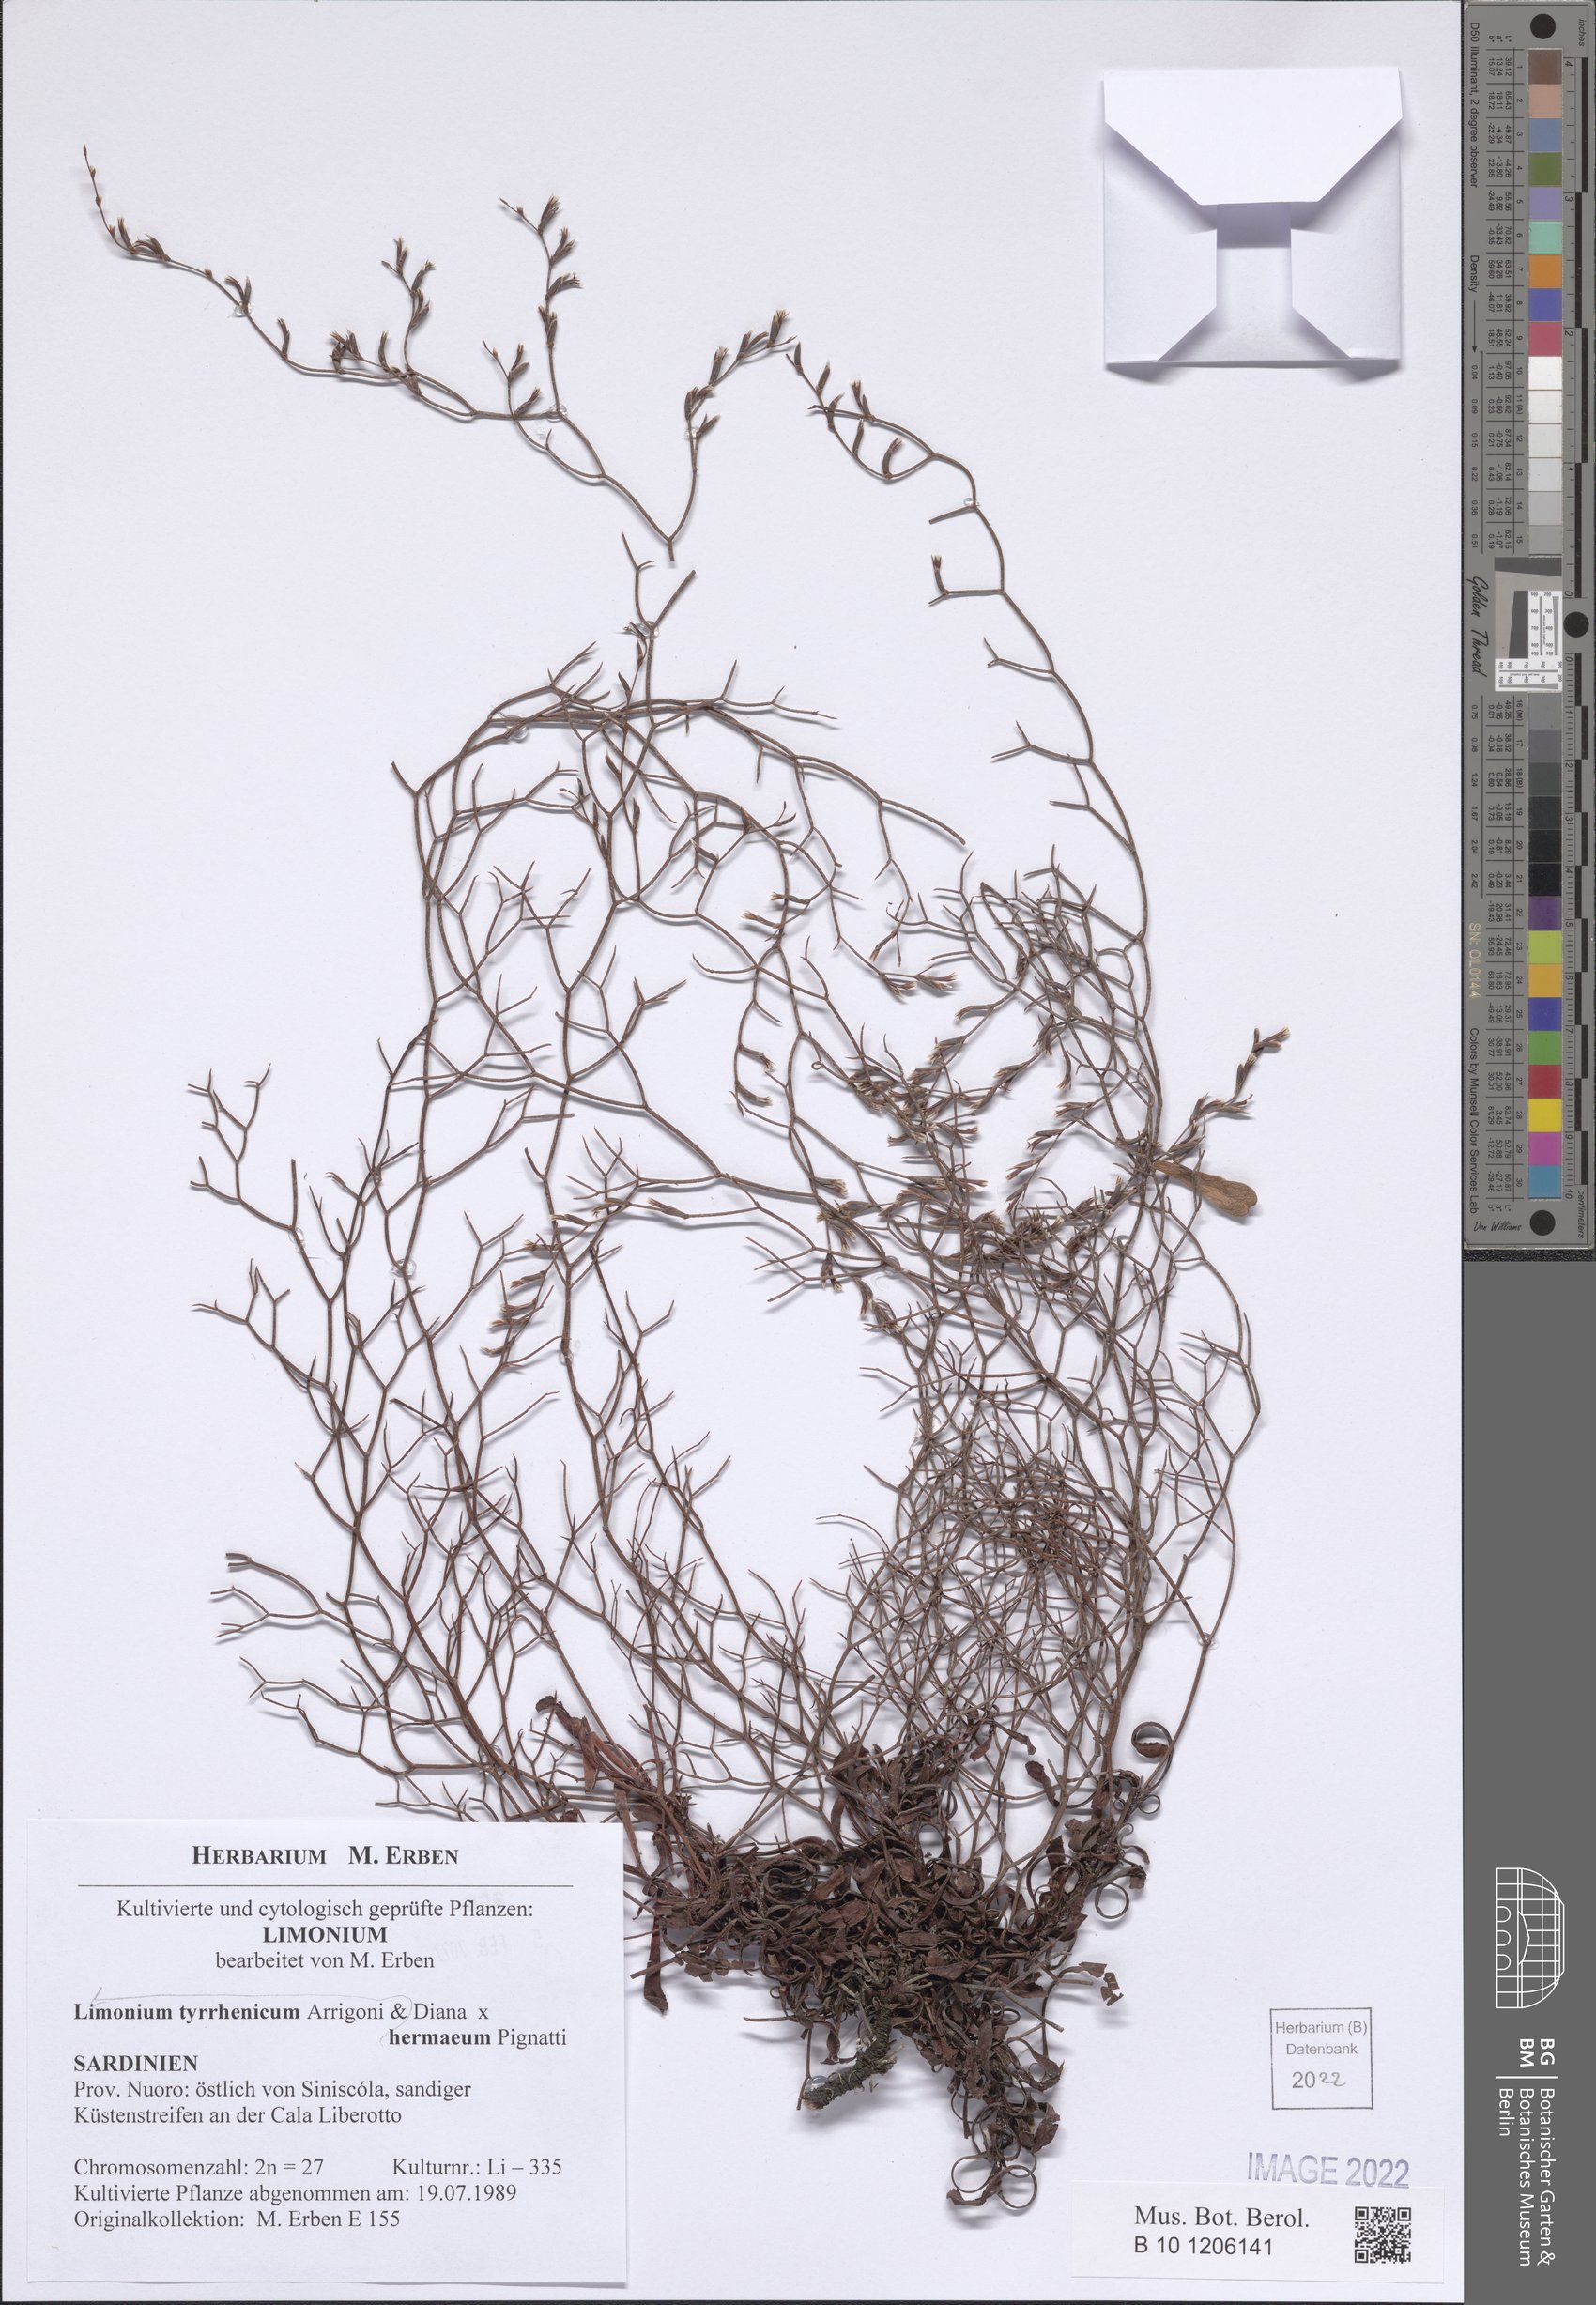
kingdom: Plantae
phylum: Tracheophyta
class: Magnoliopsida
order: Caryophyllales
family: Plumbaginaceae
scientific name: Plumbaginaceae
